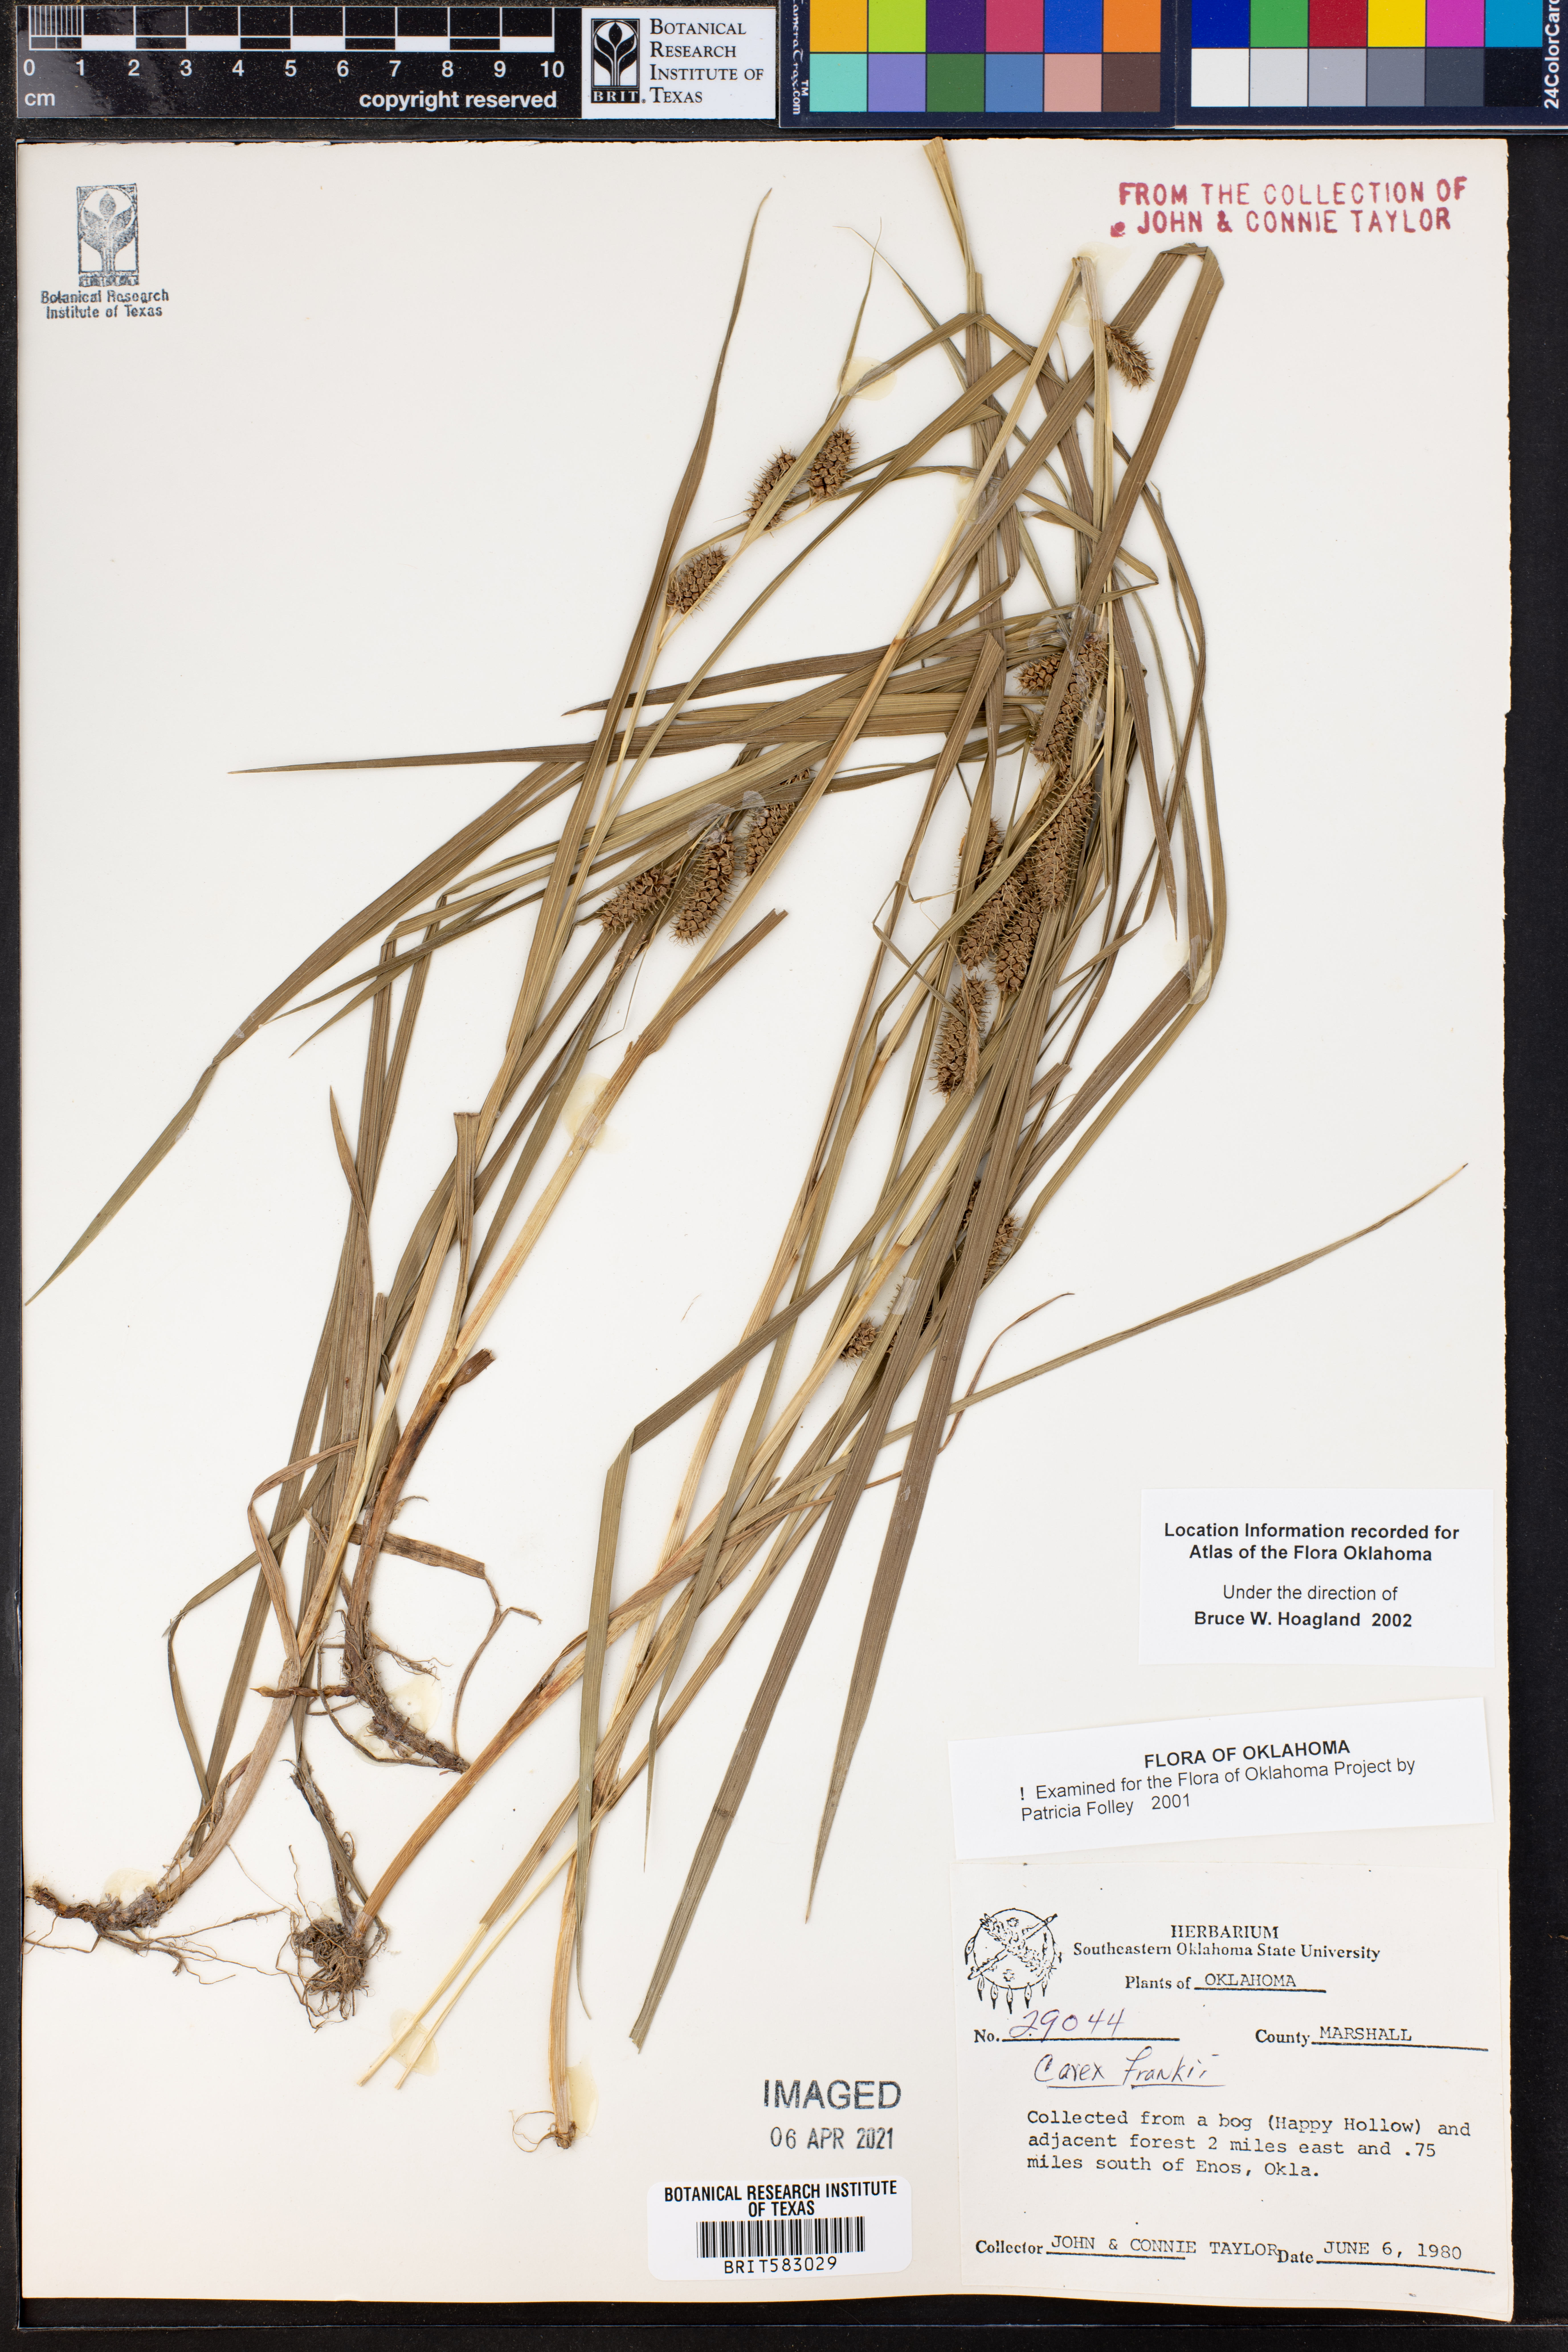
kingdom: Plantae
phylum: Tracheophyta
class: Liliopsida
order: Poales
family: Cyperaceae
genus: Carex
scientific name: Carex frankii
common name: Frank's sedge
